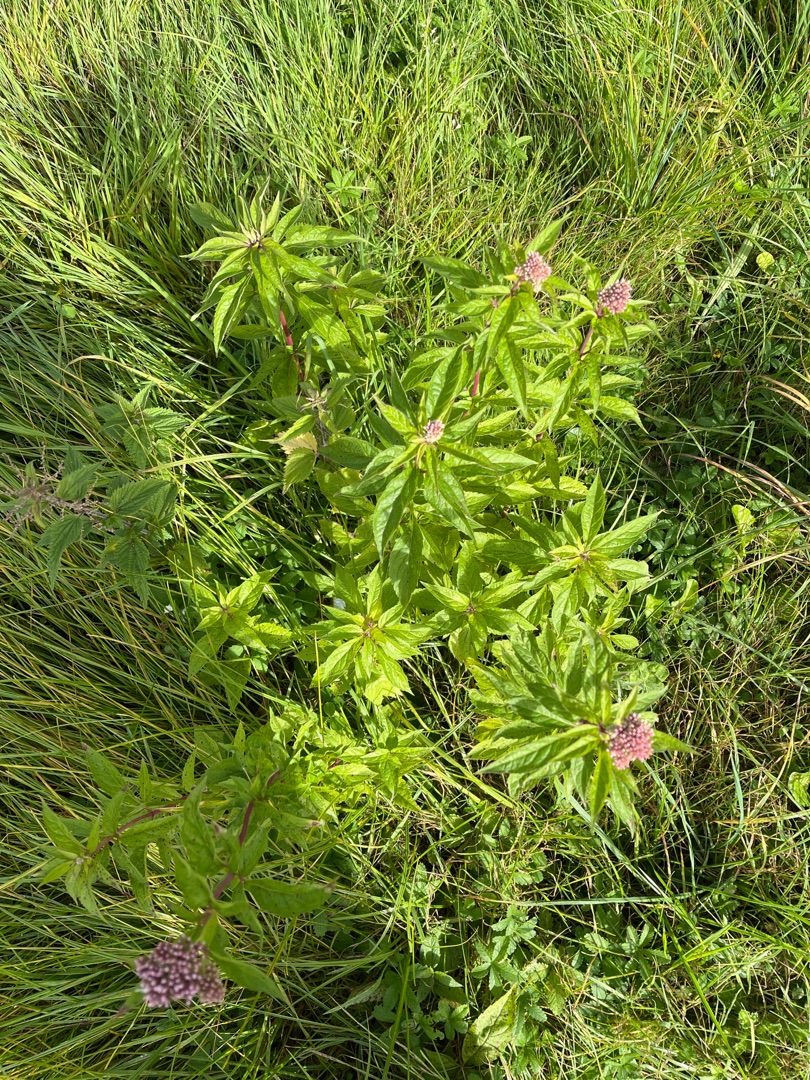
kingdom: Plantae
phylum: Tracheophyta
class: Magnoliopsida
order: Asterales
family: Asteraceae
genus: Eupatorium
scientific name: Eupatorium cannabinum
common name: Hjortetrøst
